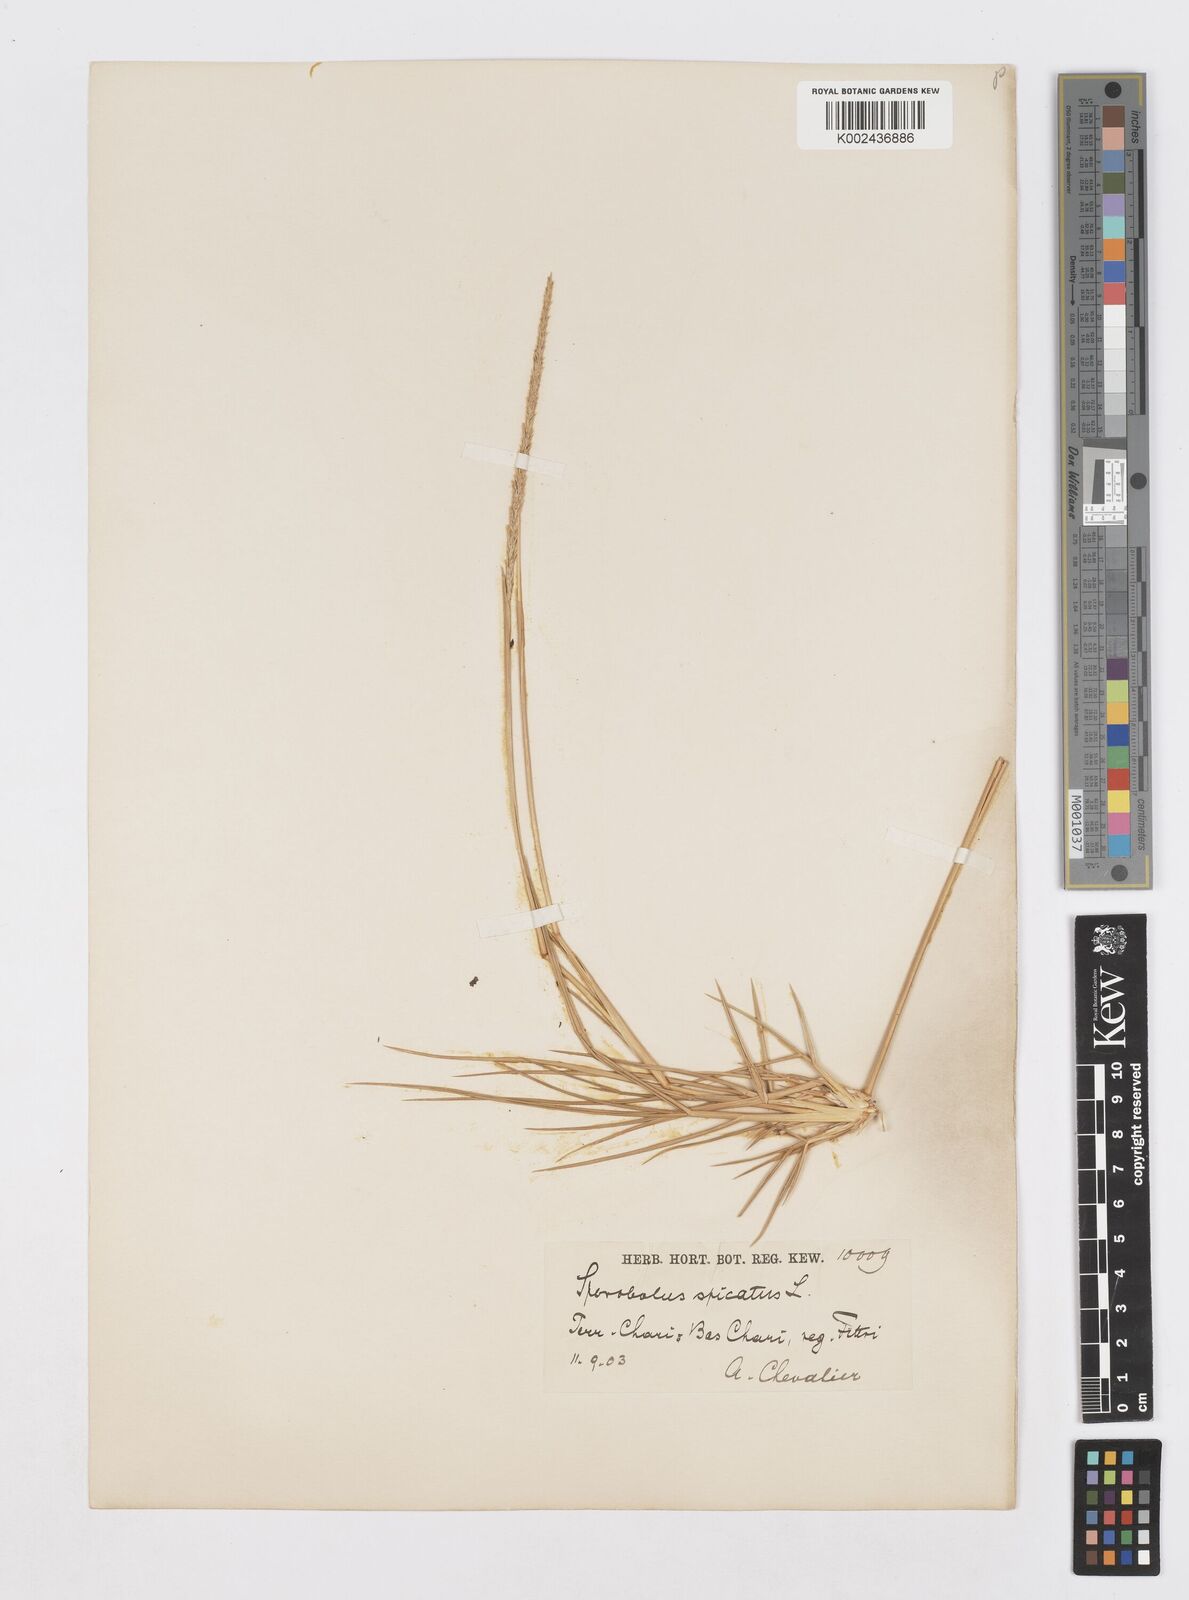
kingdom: Plantae
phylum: Tracheophyta
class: Liliopsida
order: Poales
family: Poaceae
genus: Sporobolus
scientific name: Sporobolus spicatus
